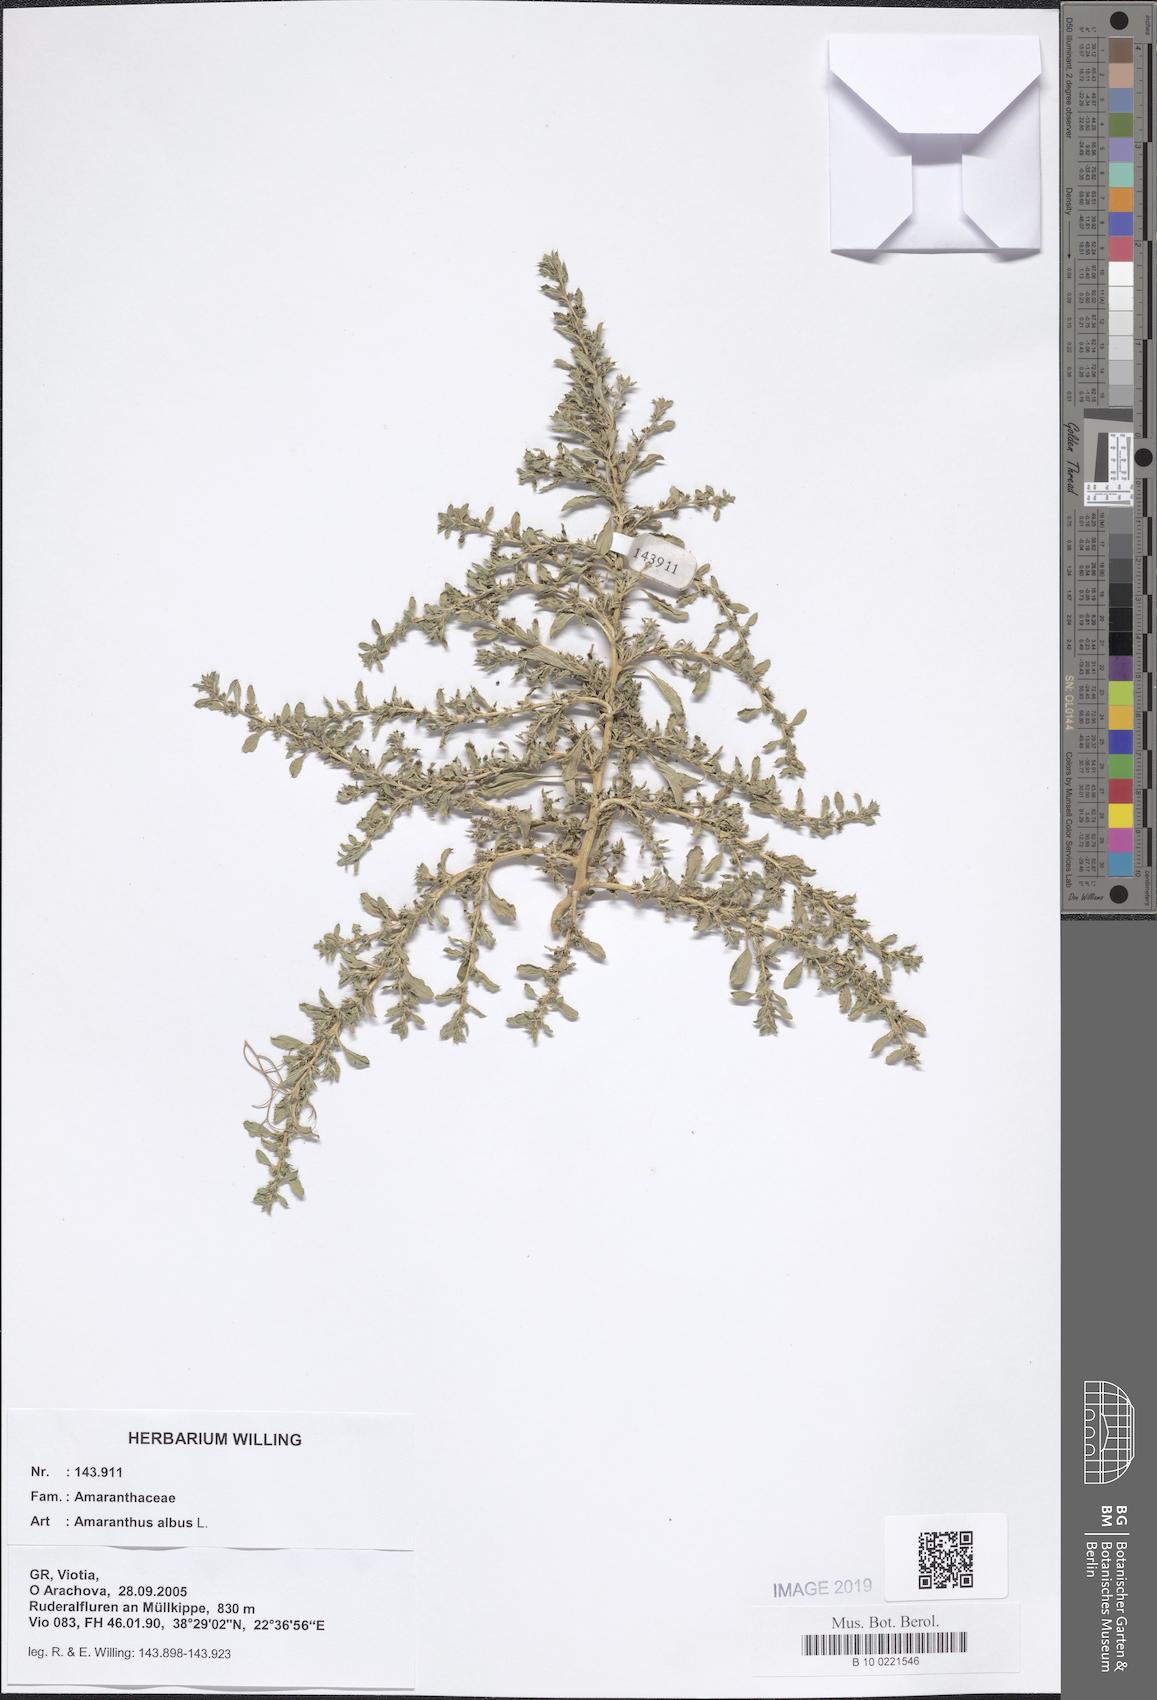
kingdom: Plantae
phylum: Tracheophyta
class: Magnoliopsida
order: Caryophyllales
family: Amaranthaceae
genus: Amaranthus
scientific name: Amaranthus albus
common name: White pigweed
